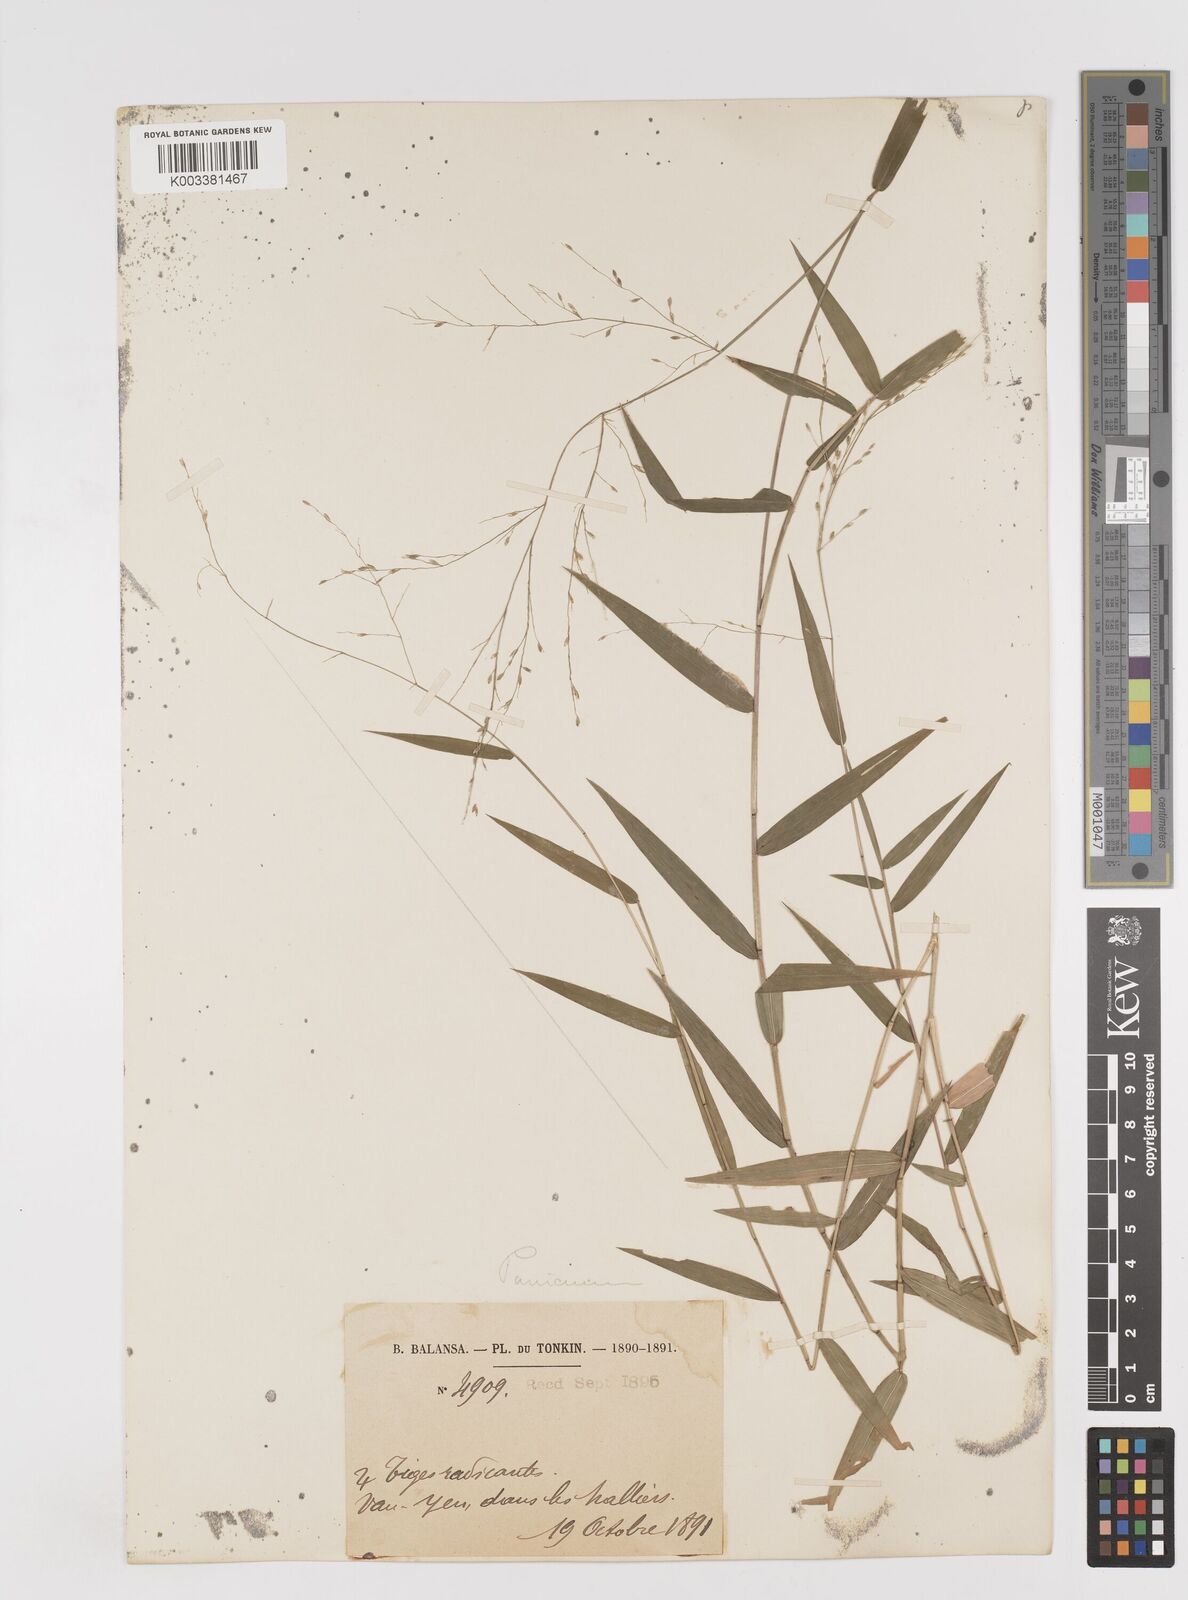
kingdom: Plantae
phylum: Tracheophyta
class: Liliopsida
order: Poales
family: Poaceae
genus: Ottochloa
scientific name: Ottochloa nodosa
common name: Slender-panic grass
